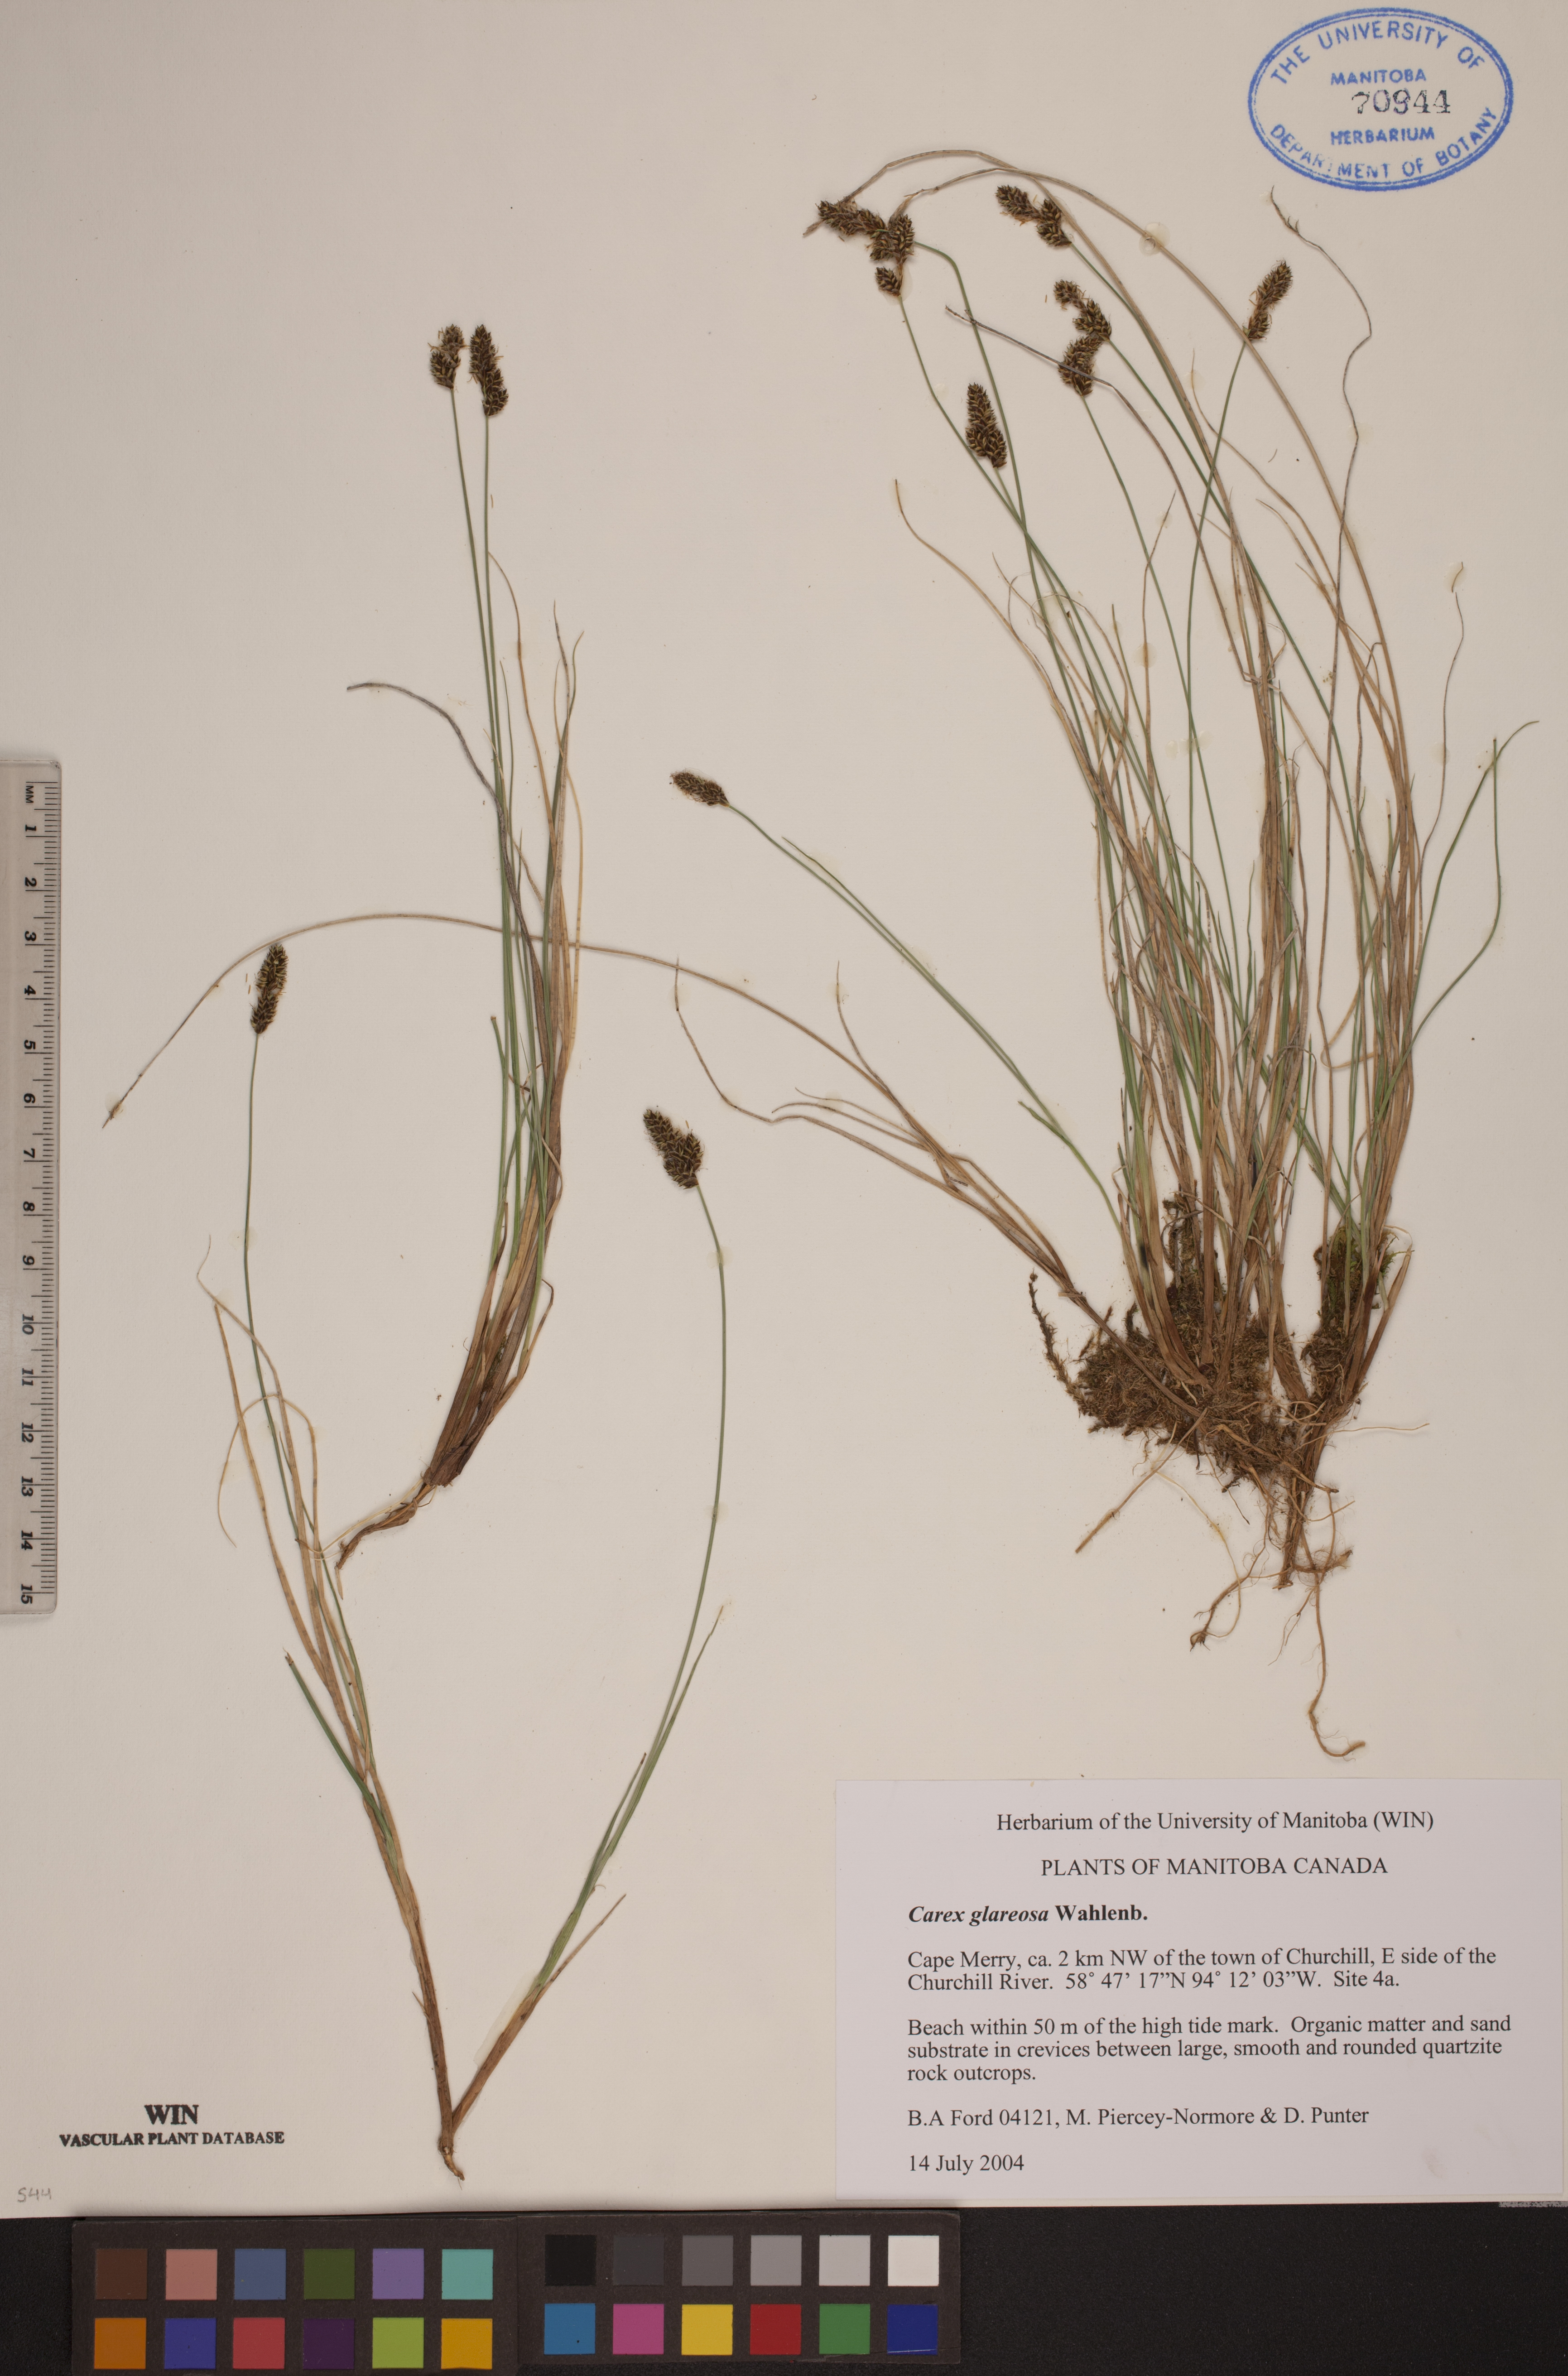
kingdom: Plantae
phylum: Tracheophyta
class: Liliopsida
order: Poales
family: Cyperaceae
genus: Carex
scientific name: Carex glareosa
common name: Clustered sedge
